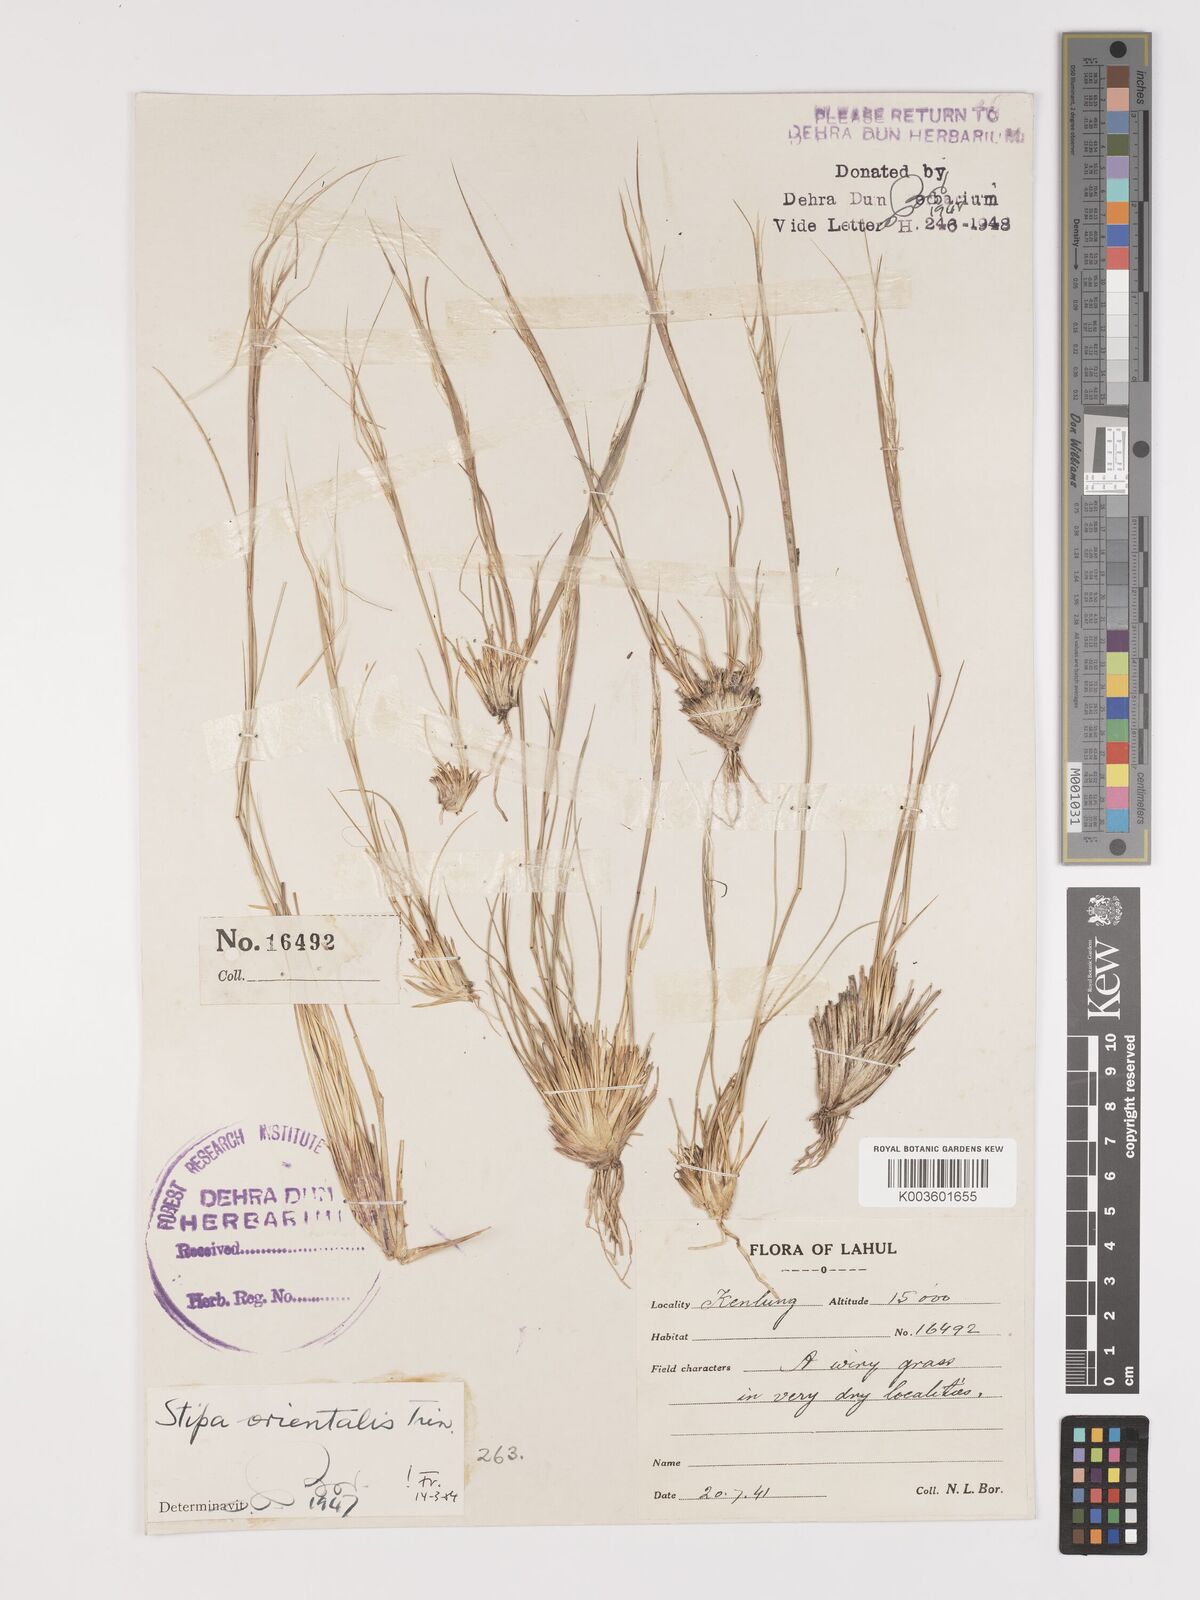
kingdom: Plantae
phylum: Tracheophyta
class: Liliopsida
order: Poales
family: Poaceae
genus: Stipa
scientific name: Stipa orientalis
